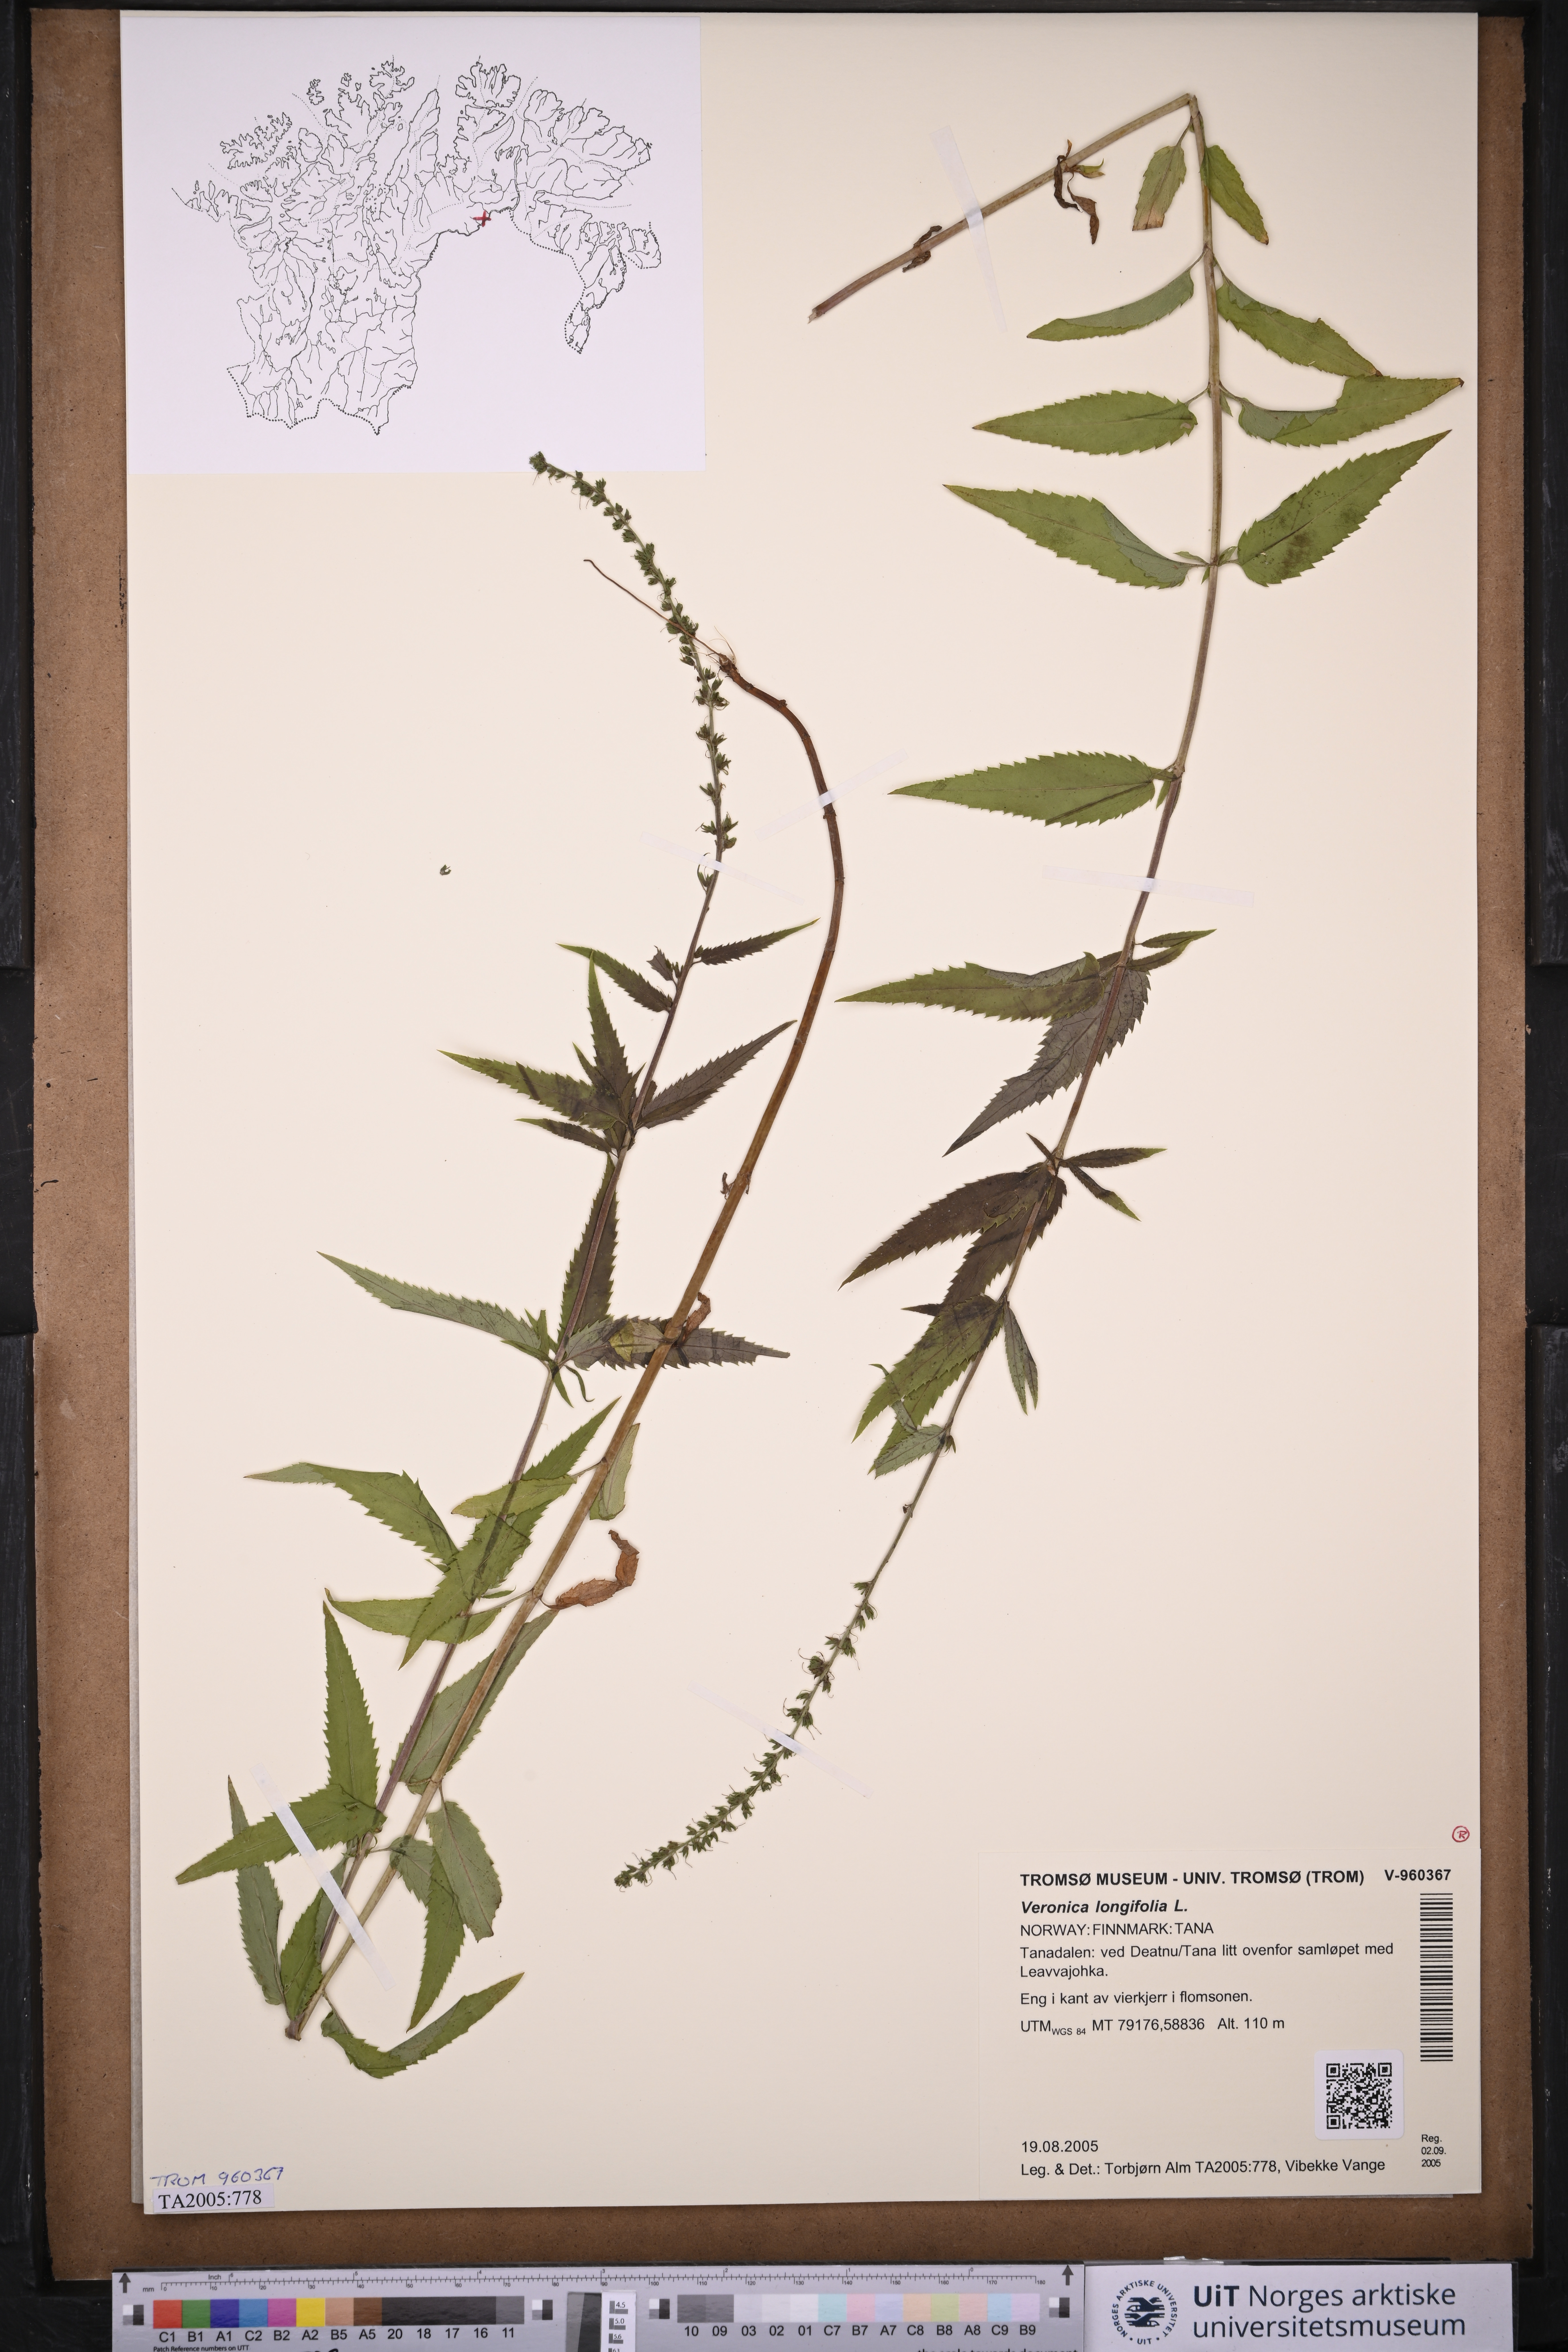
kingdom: Plantae
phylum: Tracheophyta
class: Magnoliopsida
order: Lamiales
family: Plantaginaceae
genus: Veronica
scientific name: Veronica longifolia
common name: Garden speedwell
